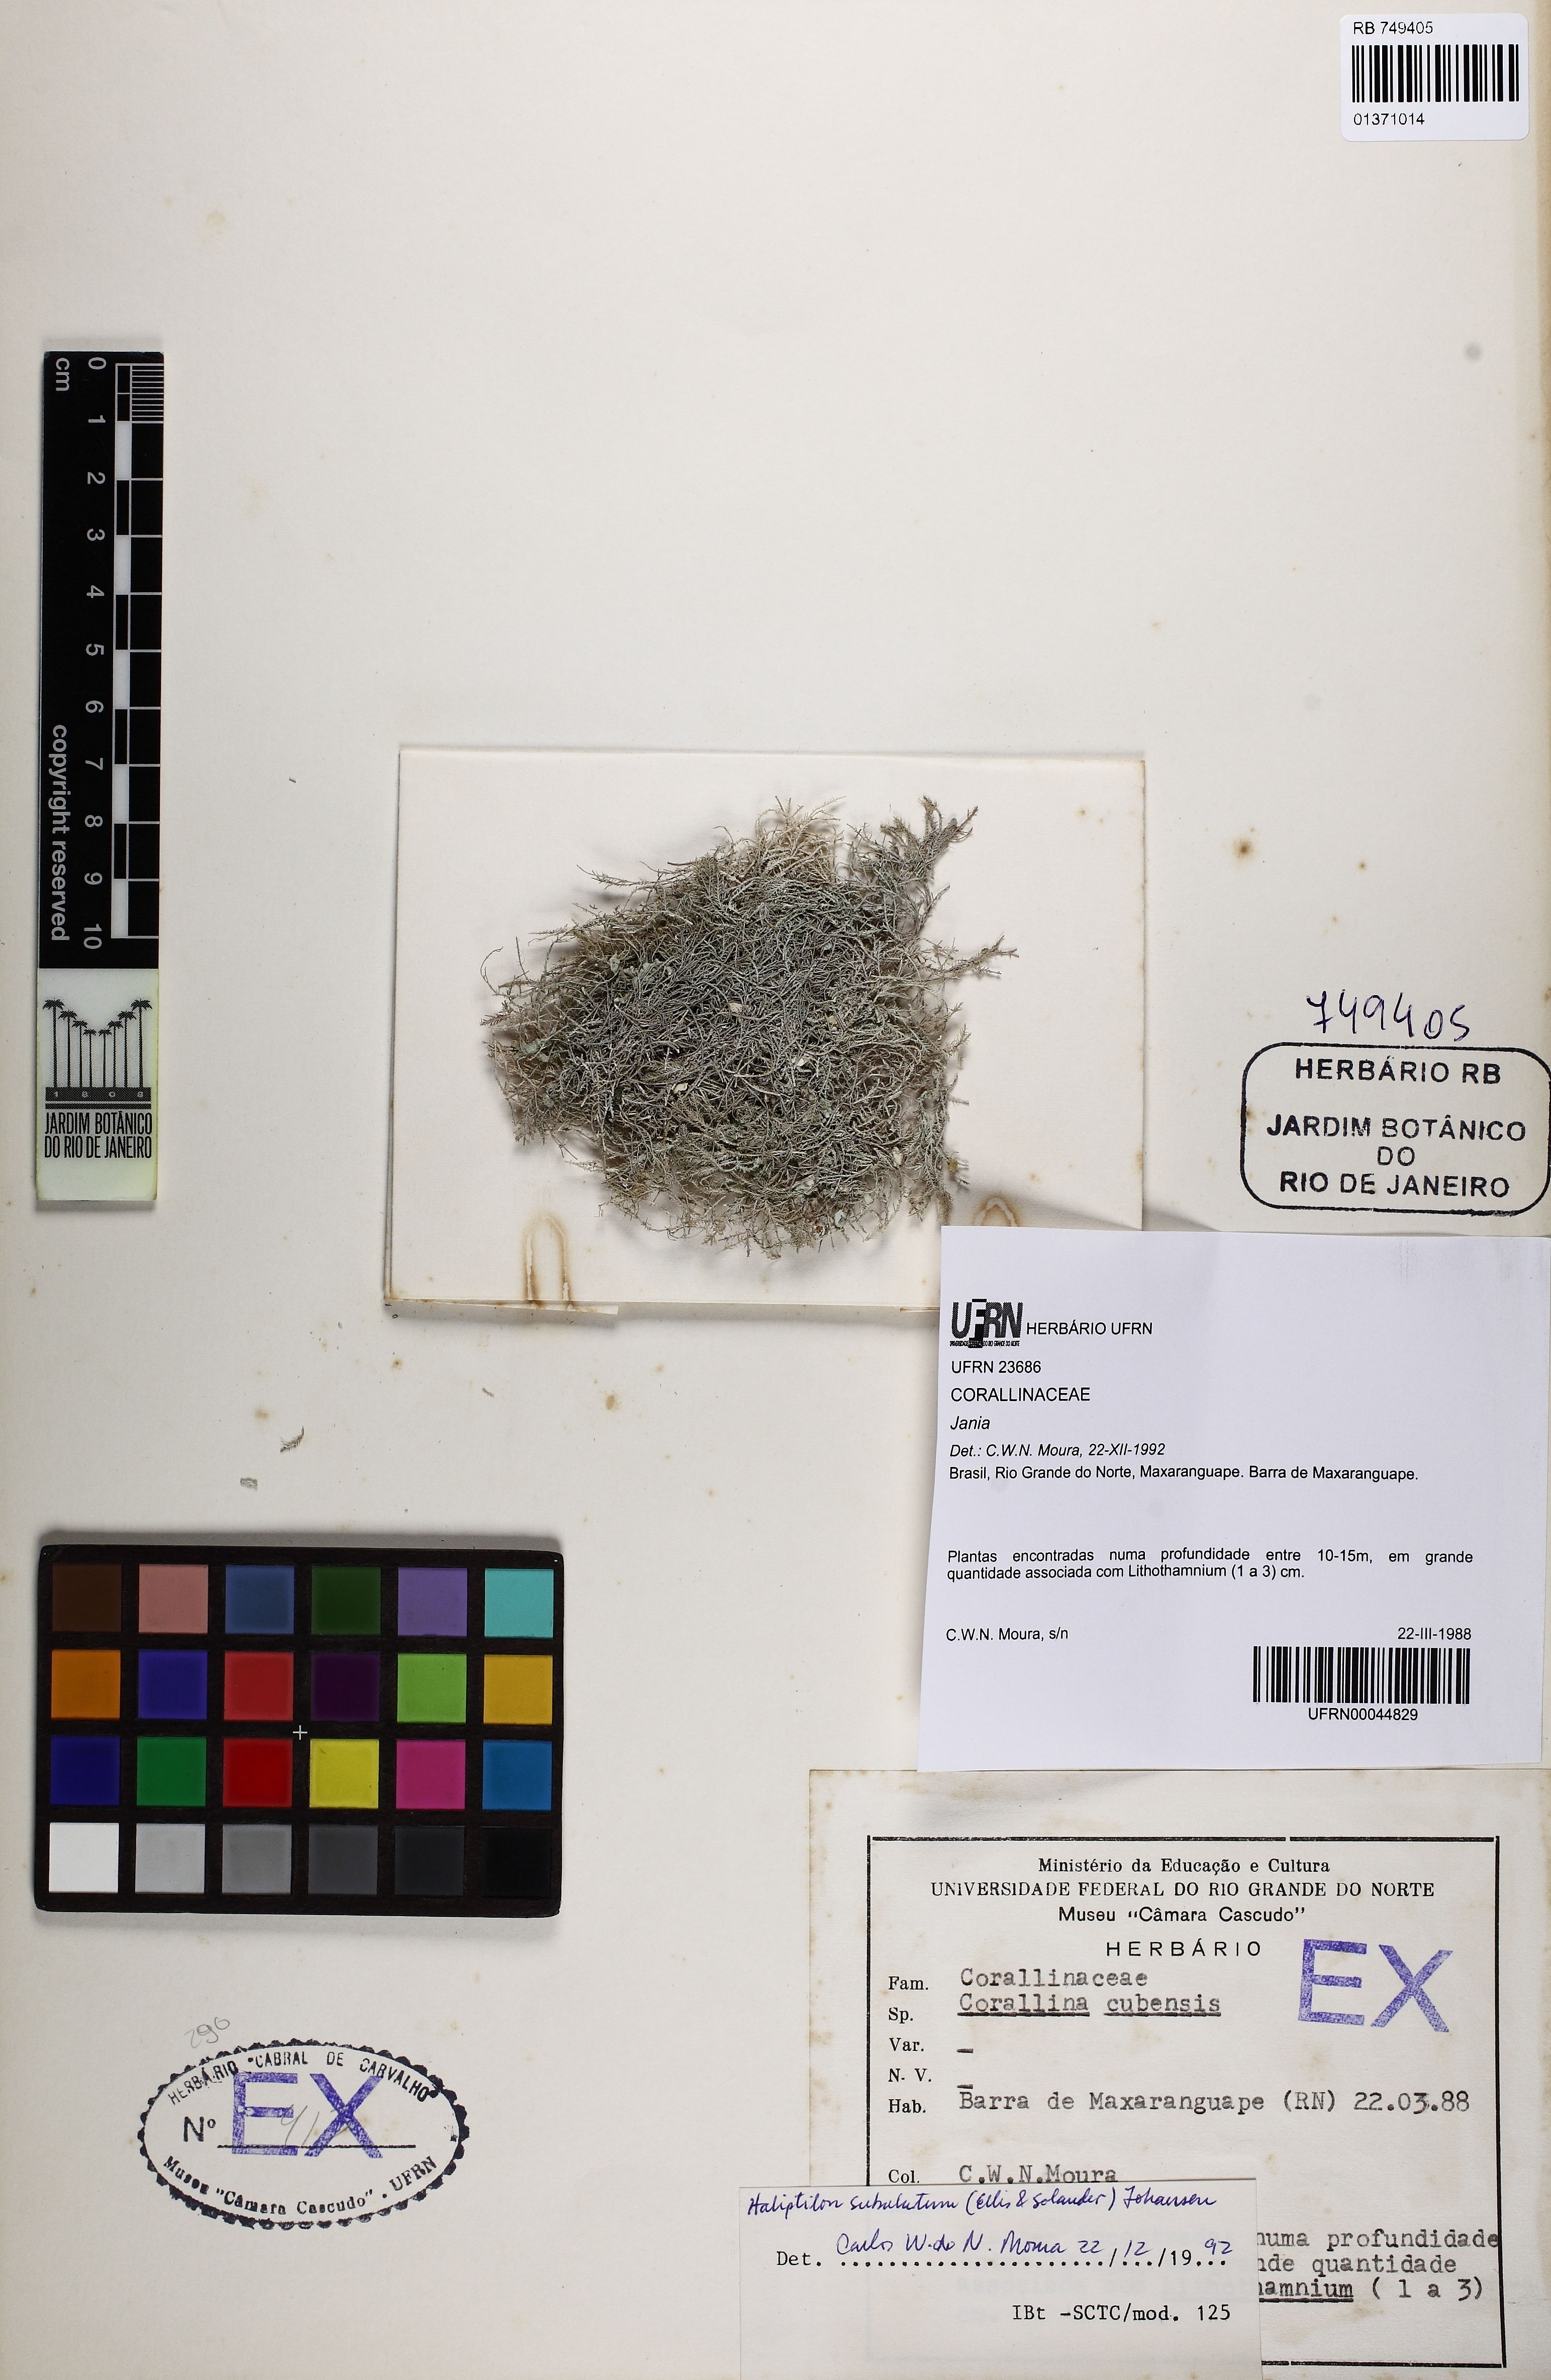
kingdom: Plantae
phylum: Rhodophyta
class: Florideophyceae
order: Corallinales
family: Corallinaceae
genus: Jania
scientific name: Jania
